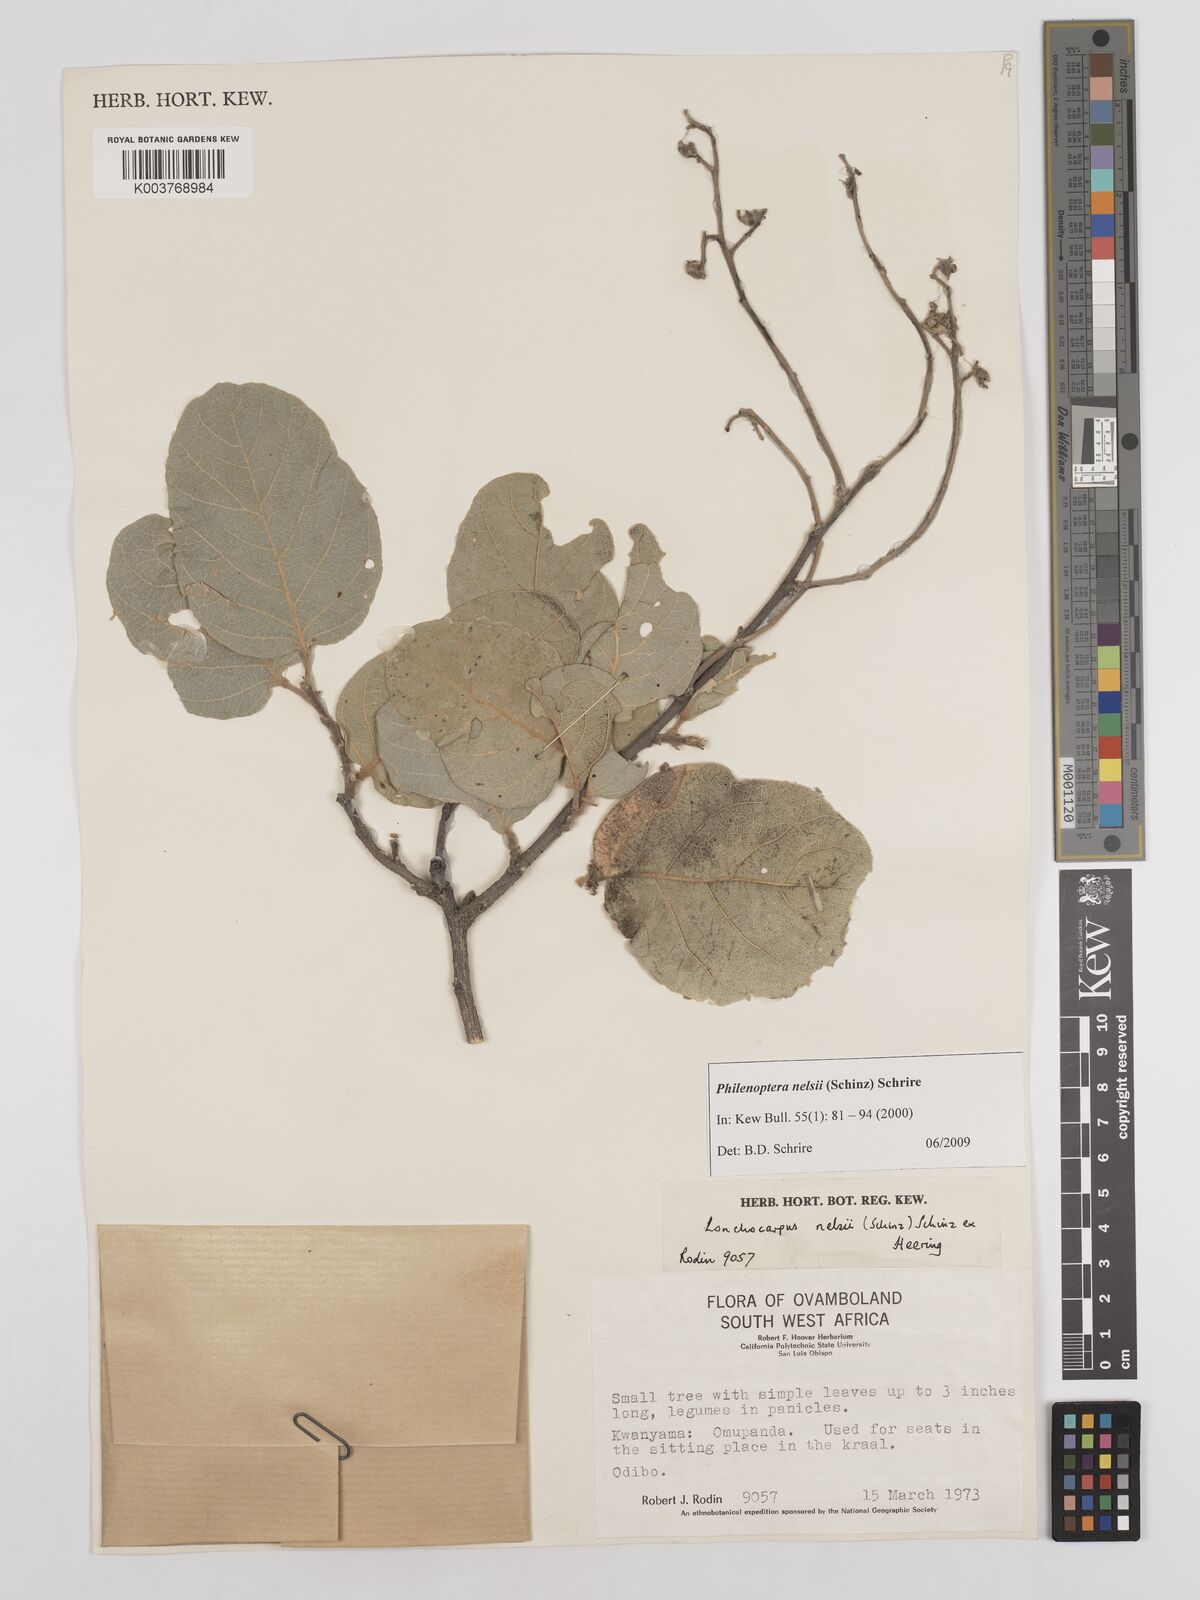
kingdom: Plantae
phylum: Tracheophyta
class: Magnoliopsida
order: Fabales
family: Fabaceae
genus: Philenoptera
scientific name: Philenoptera nelsii
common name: Kalahari apple-leaf
